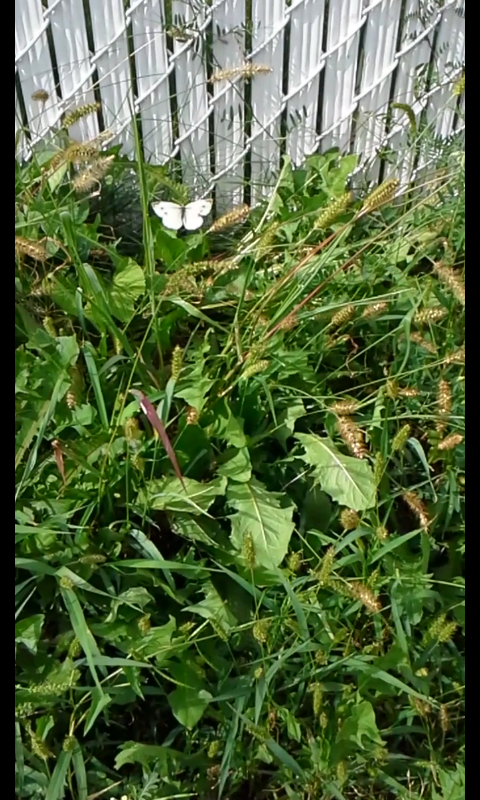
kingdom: Animalia
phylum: Arthropoda
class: Insecta
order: Lepidoptera
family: Pieridae
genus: Pieris
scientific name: Pieris rapae
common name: Cabbage White
